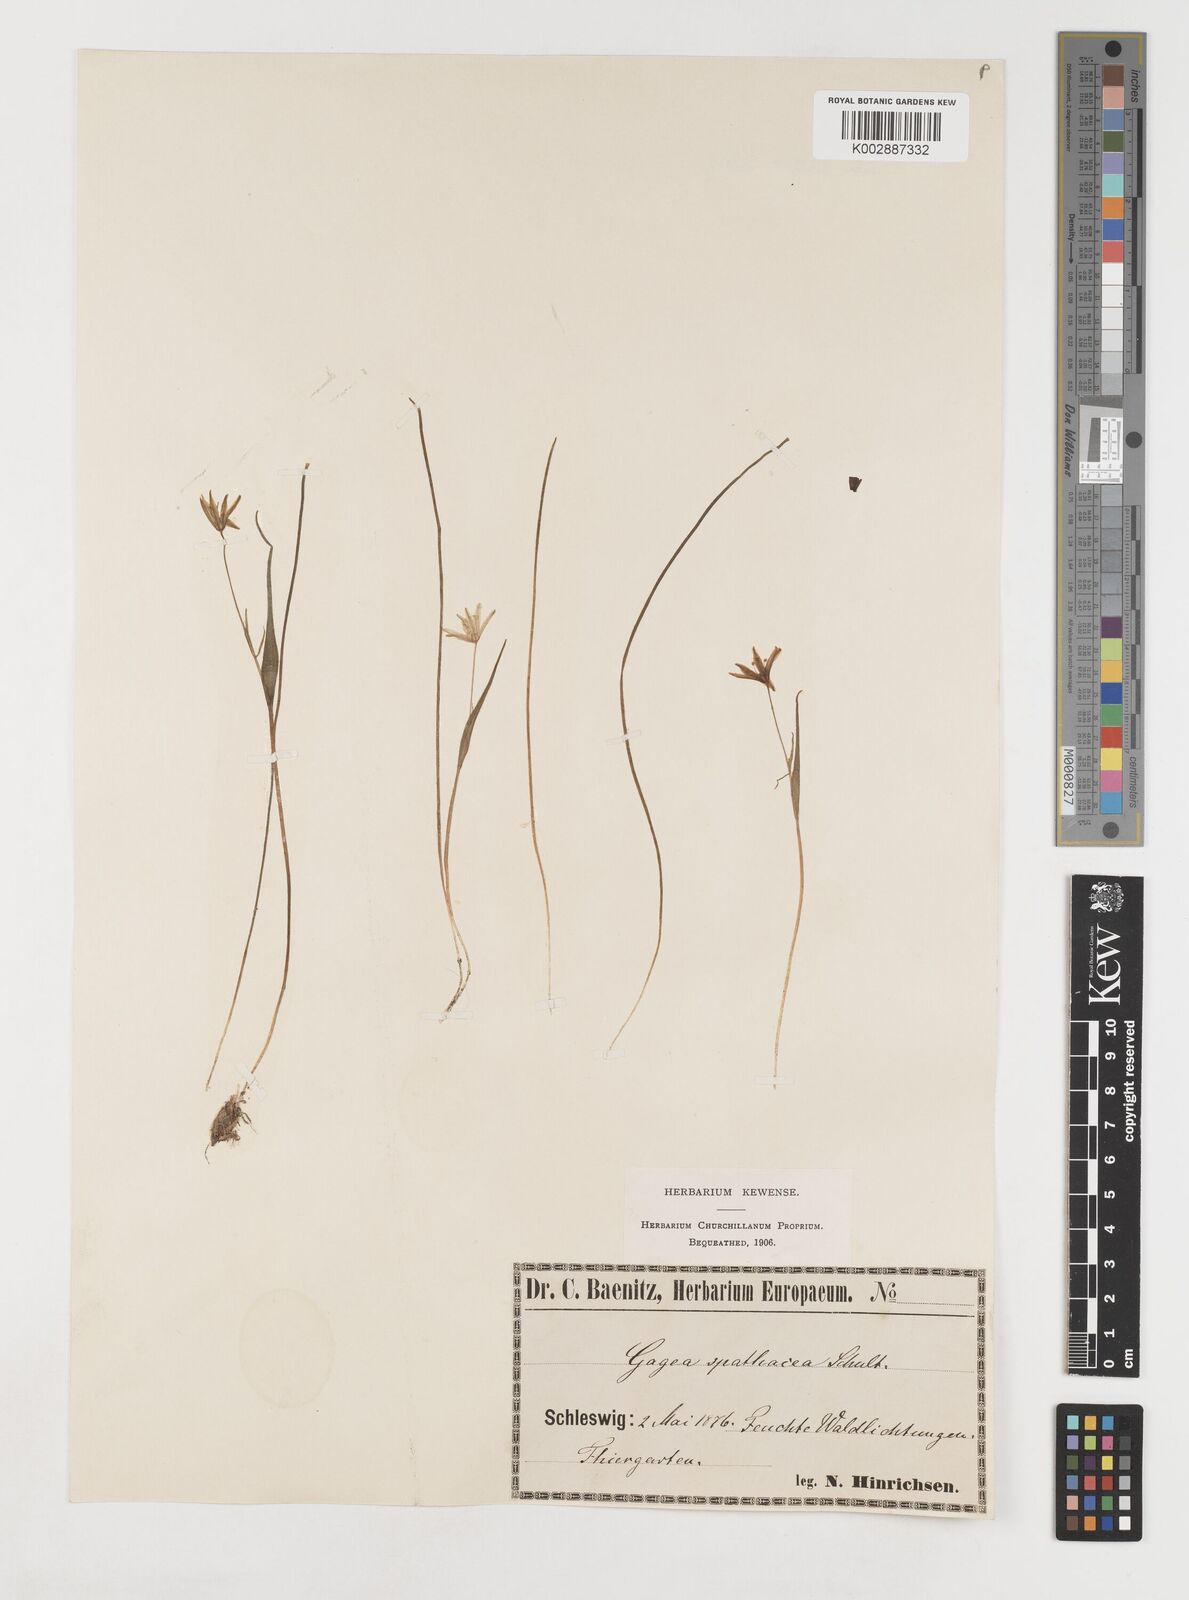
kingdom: Plantae
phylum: Tracheophyta
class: Liliopsida
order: Liliales
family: Liliaceae
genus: Gagea
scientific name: Gagea spathacea
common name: Belgian gagea
